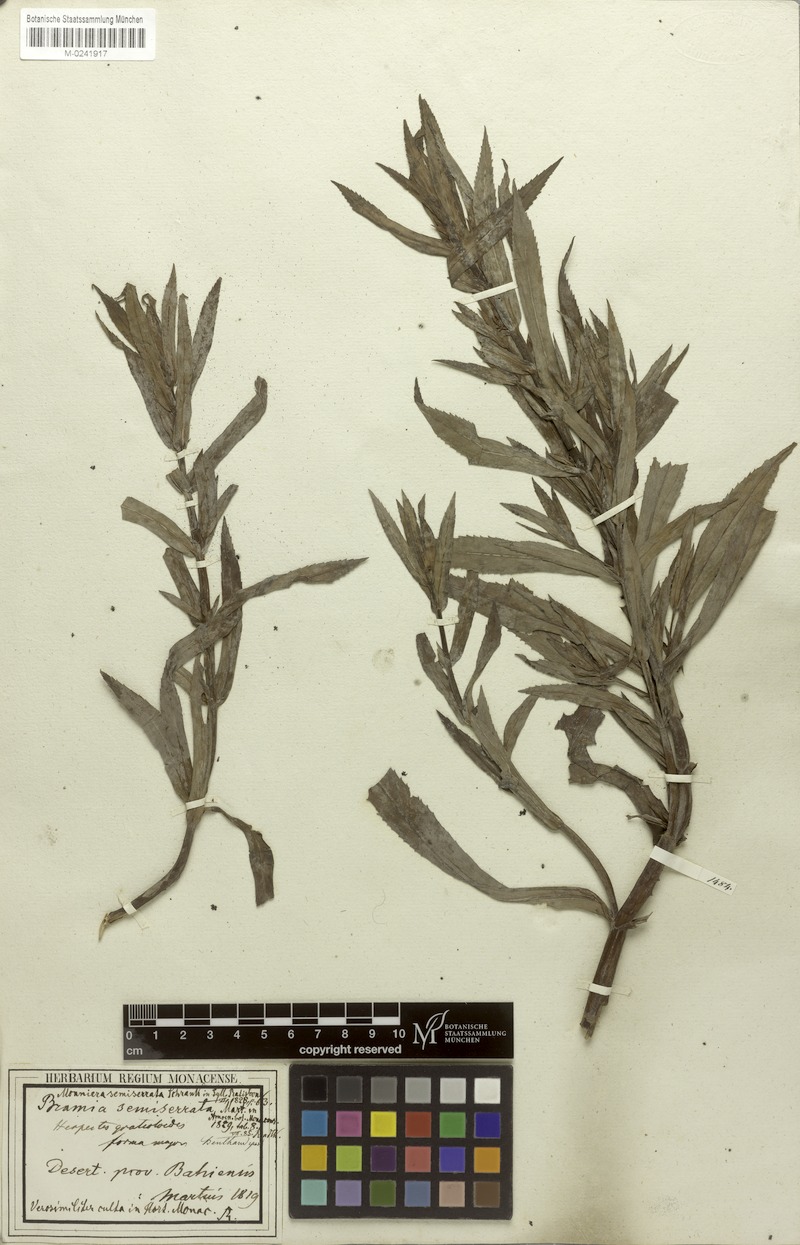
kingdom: Plantae
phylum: Tracheophyta
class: Magnoliopsida
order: Lamiales
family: Plantaginaceae
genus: Bacopa
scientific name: Bacopa semiserrata
